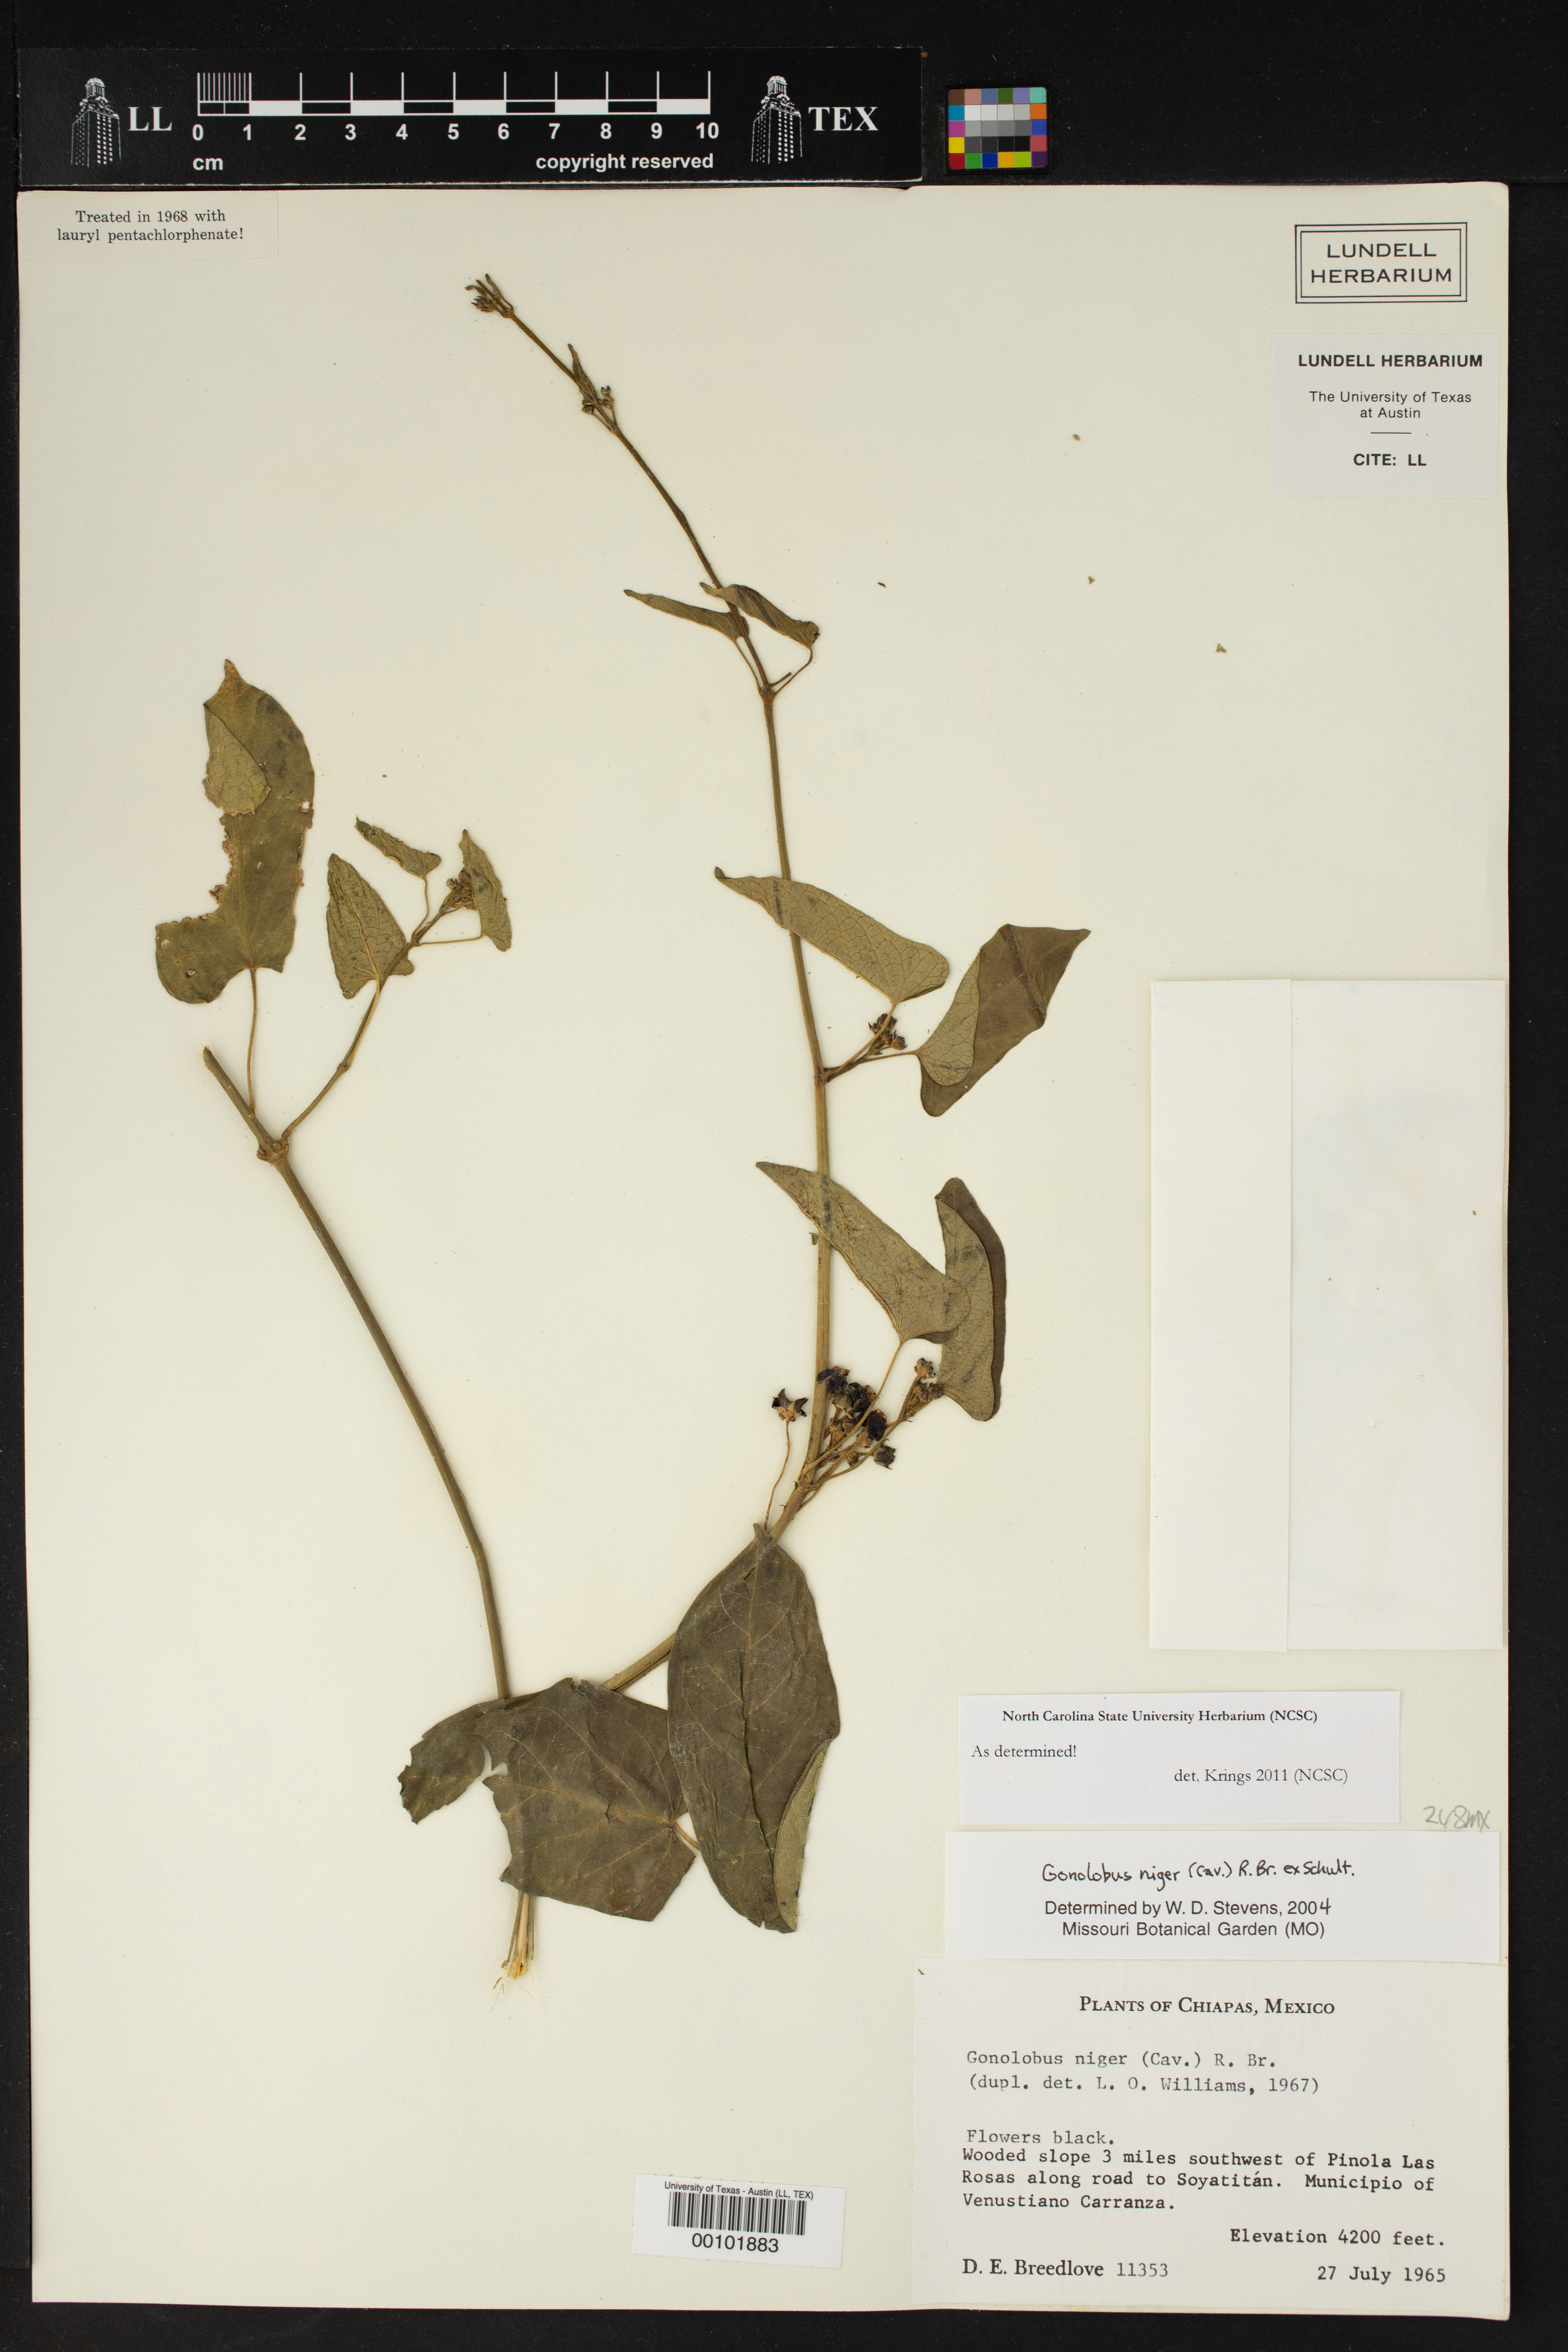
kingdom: Plantae
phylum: Tracheophyta
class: Magnoliopsida
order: Gentianales
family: Apocynaceae
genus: Gonolobus
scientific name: Gonolobus niger
